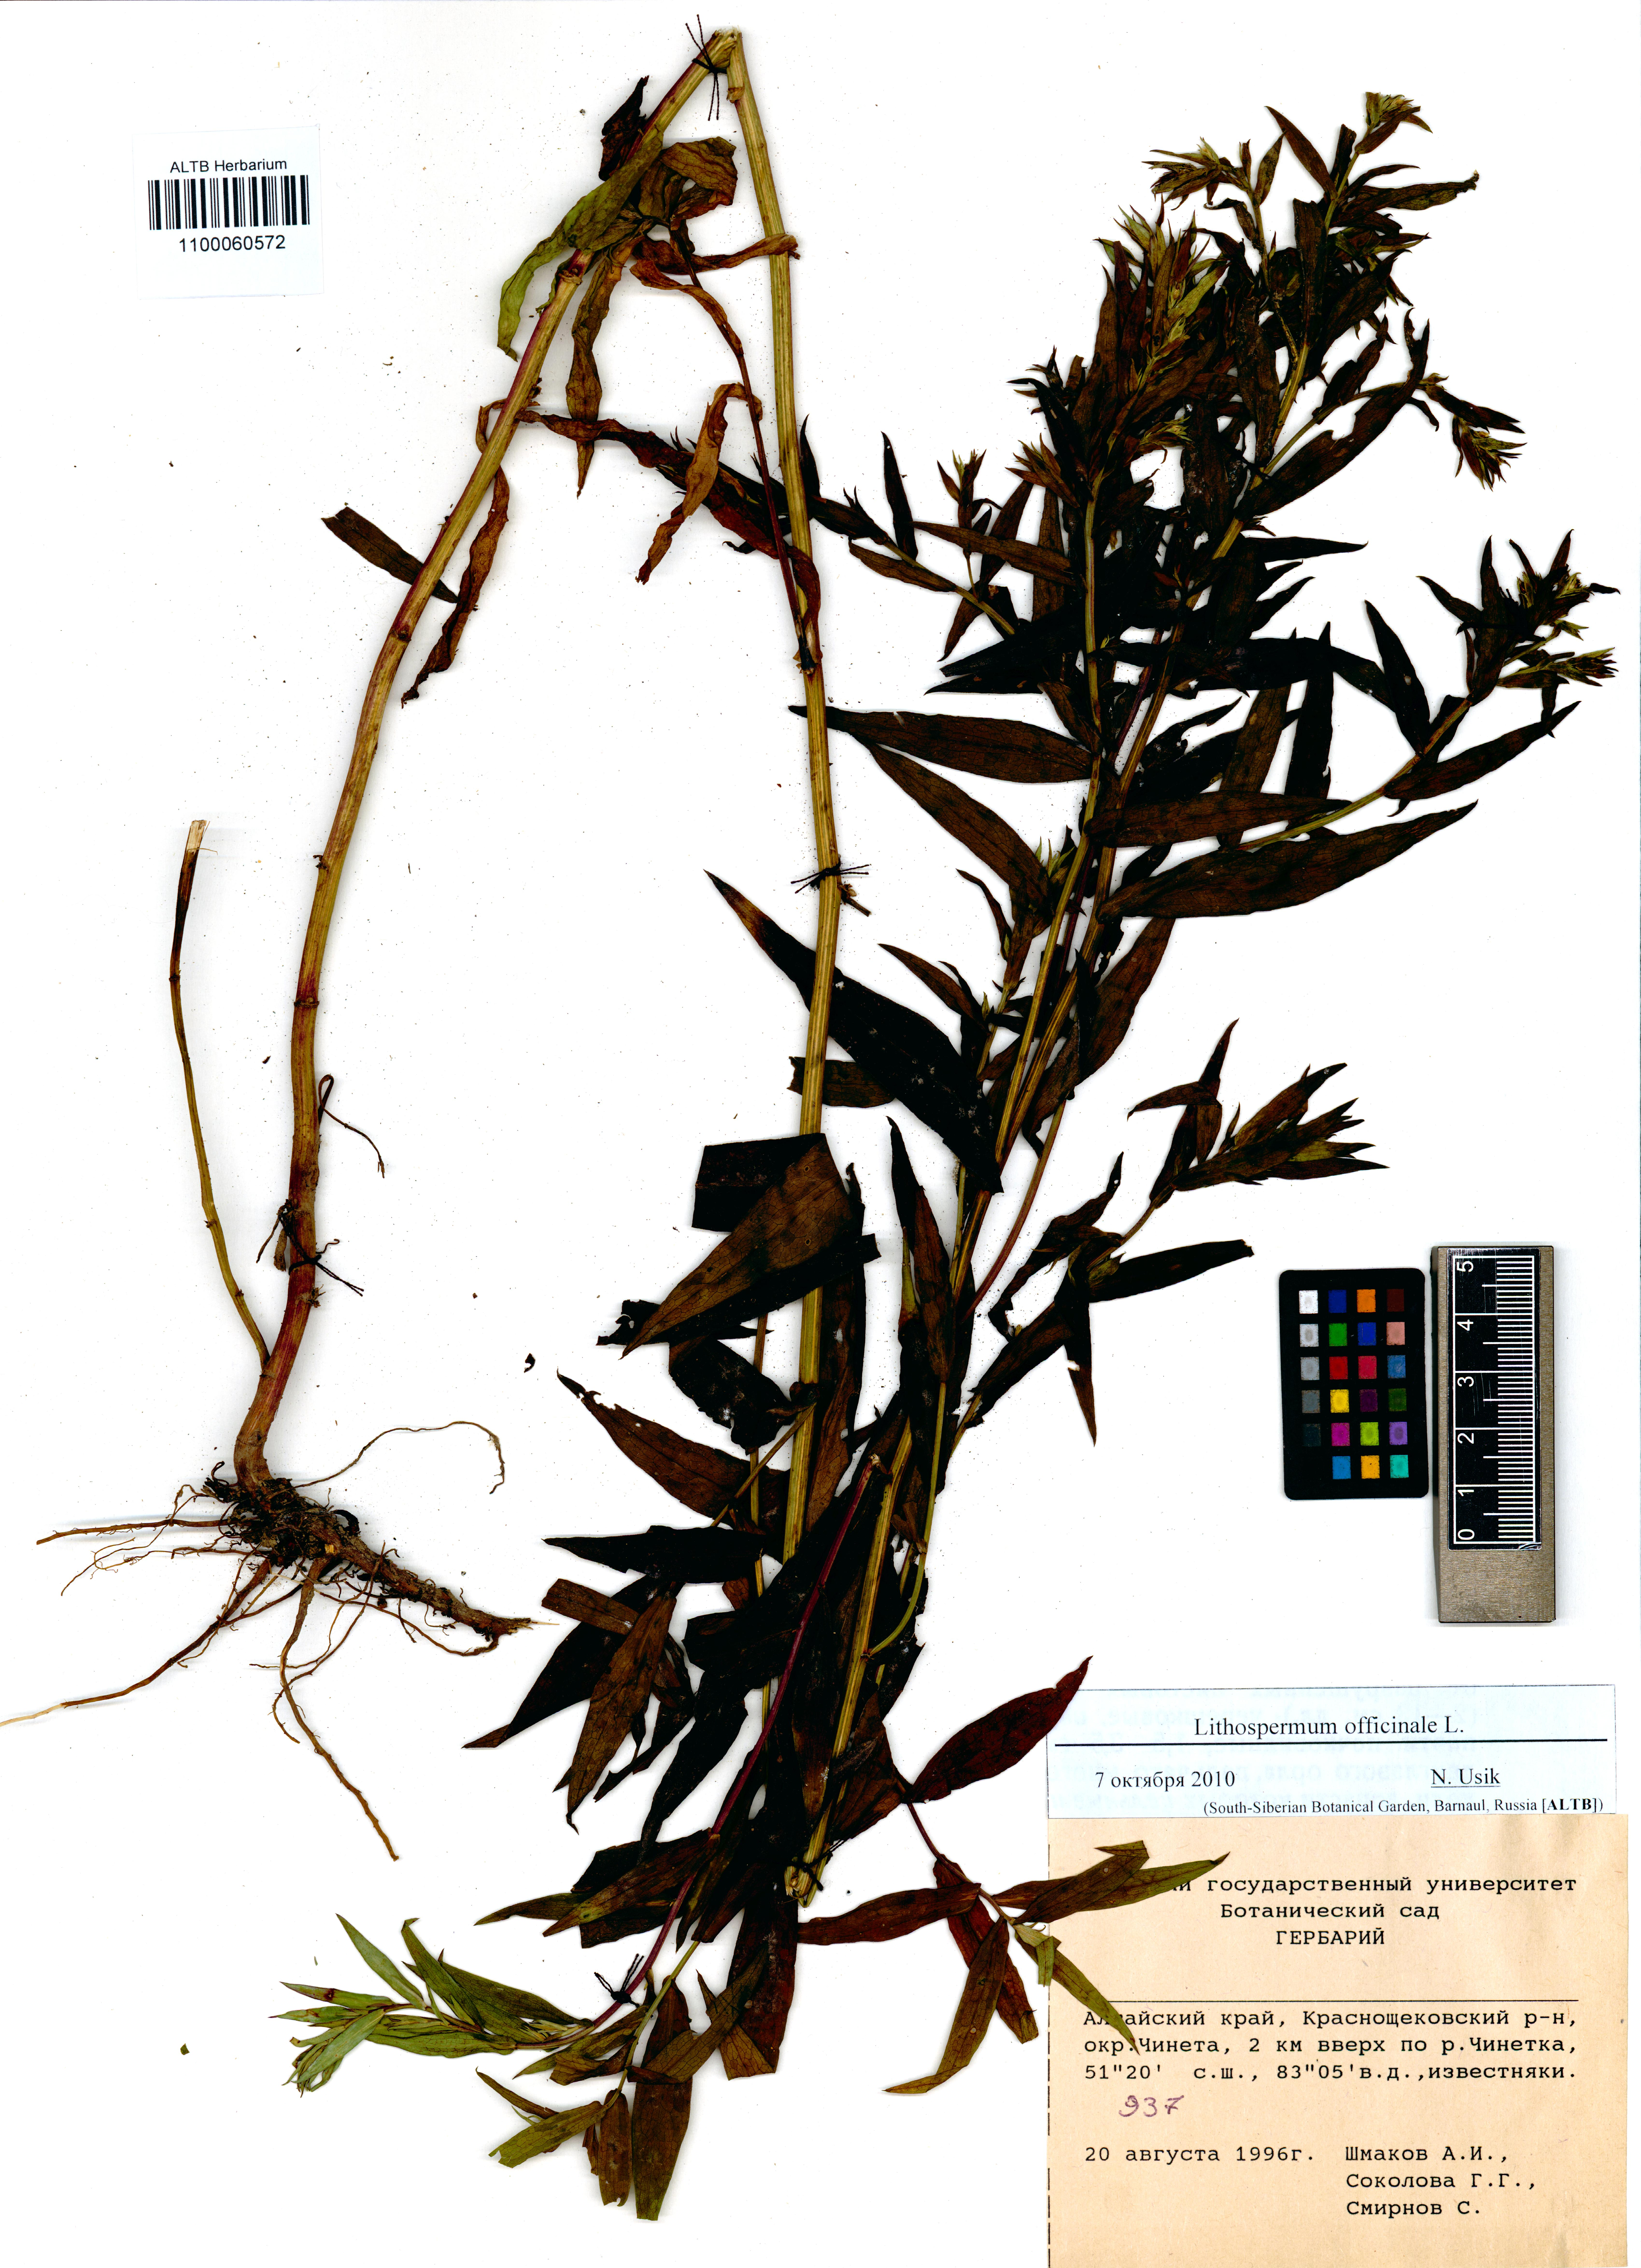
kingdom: Plantae
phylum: Tracheophyta
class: Magnoliopsida
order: Boraginales
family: Boraginaceae
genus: Lithospermum
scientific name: Lithospermum officinale
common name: Common gromwell
